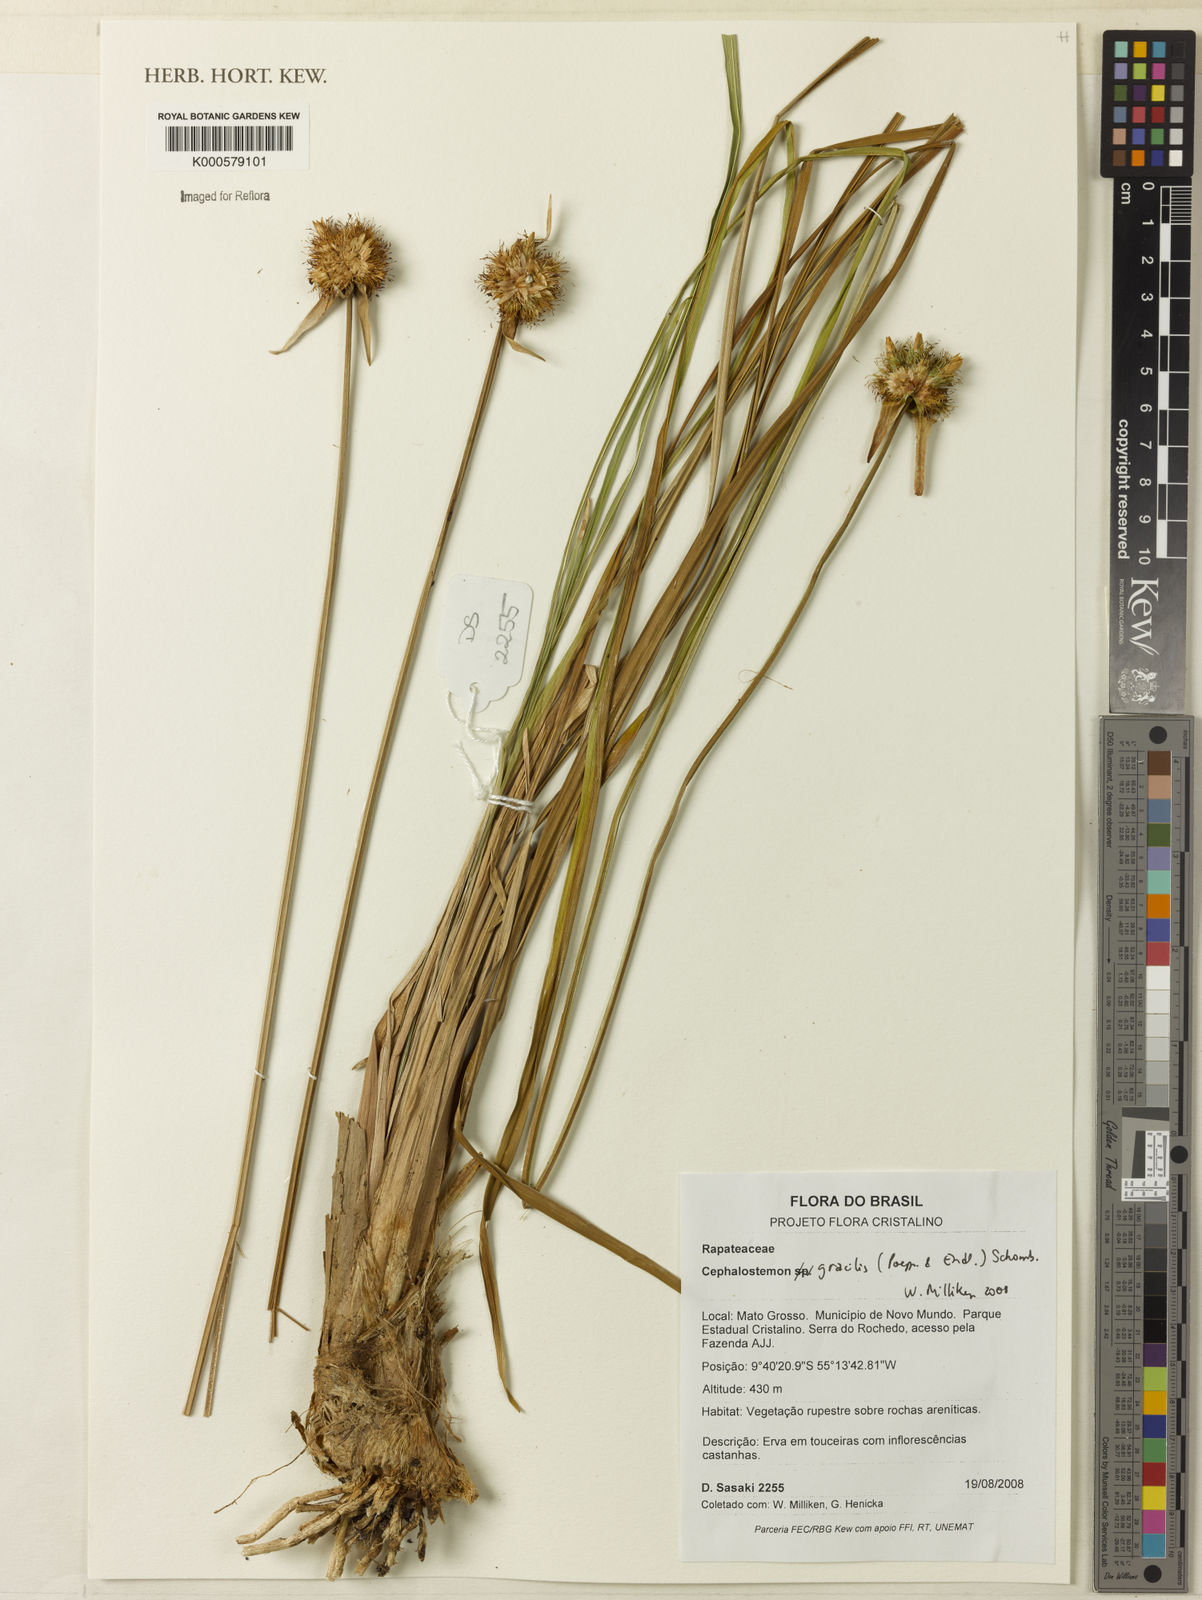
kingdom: Plantae
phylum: Tracheophyta
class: Liliopsida
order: Poales
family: Rapateaceae
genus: Cephalostemon
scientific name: Cephalostemon gracilis
